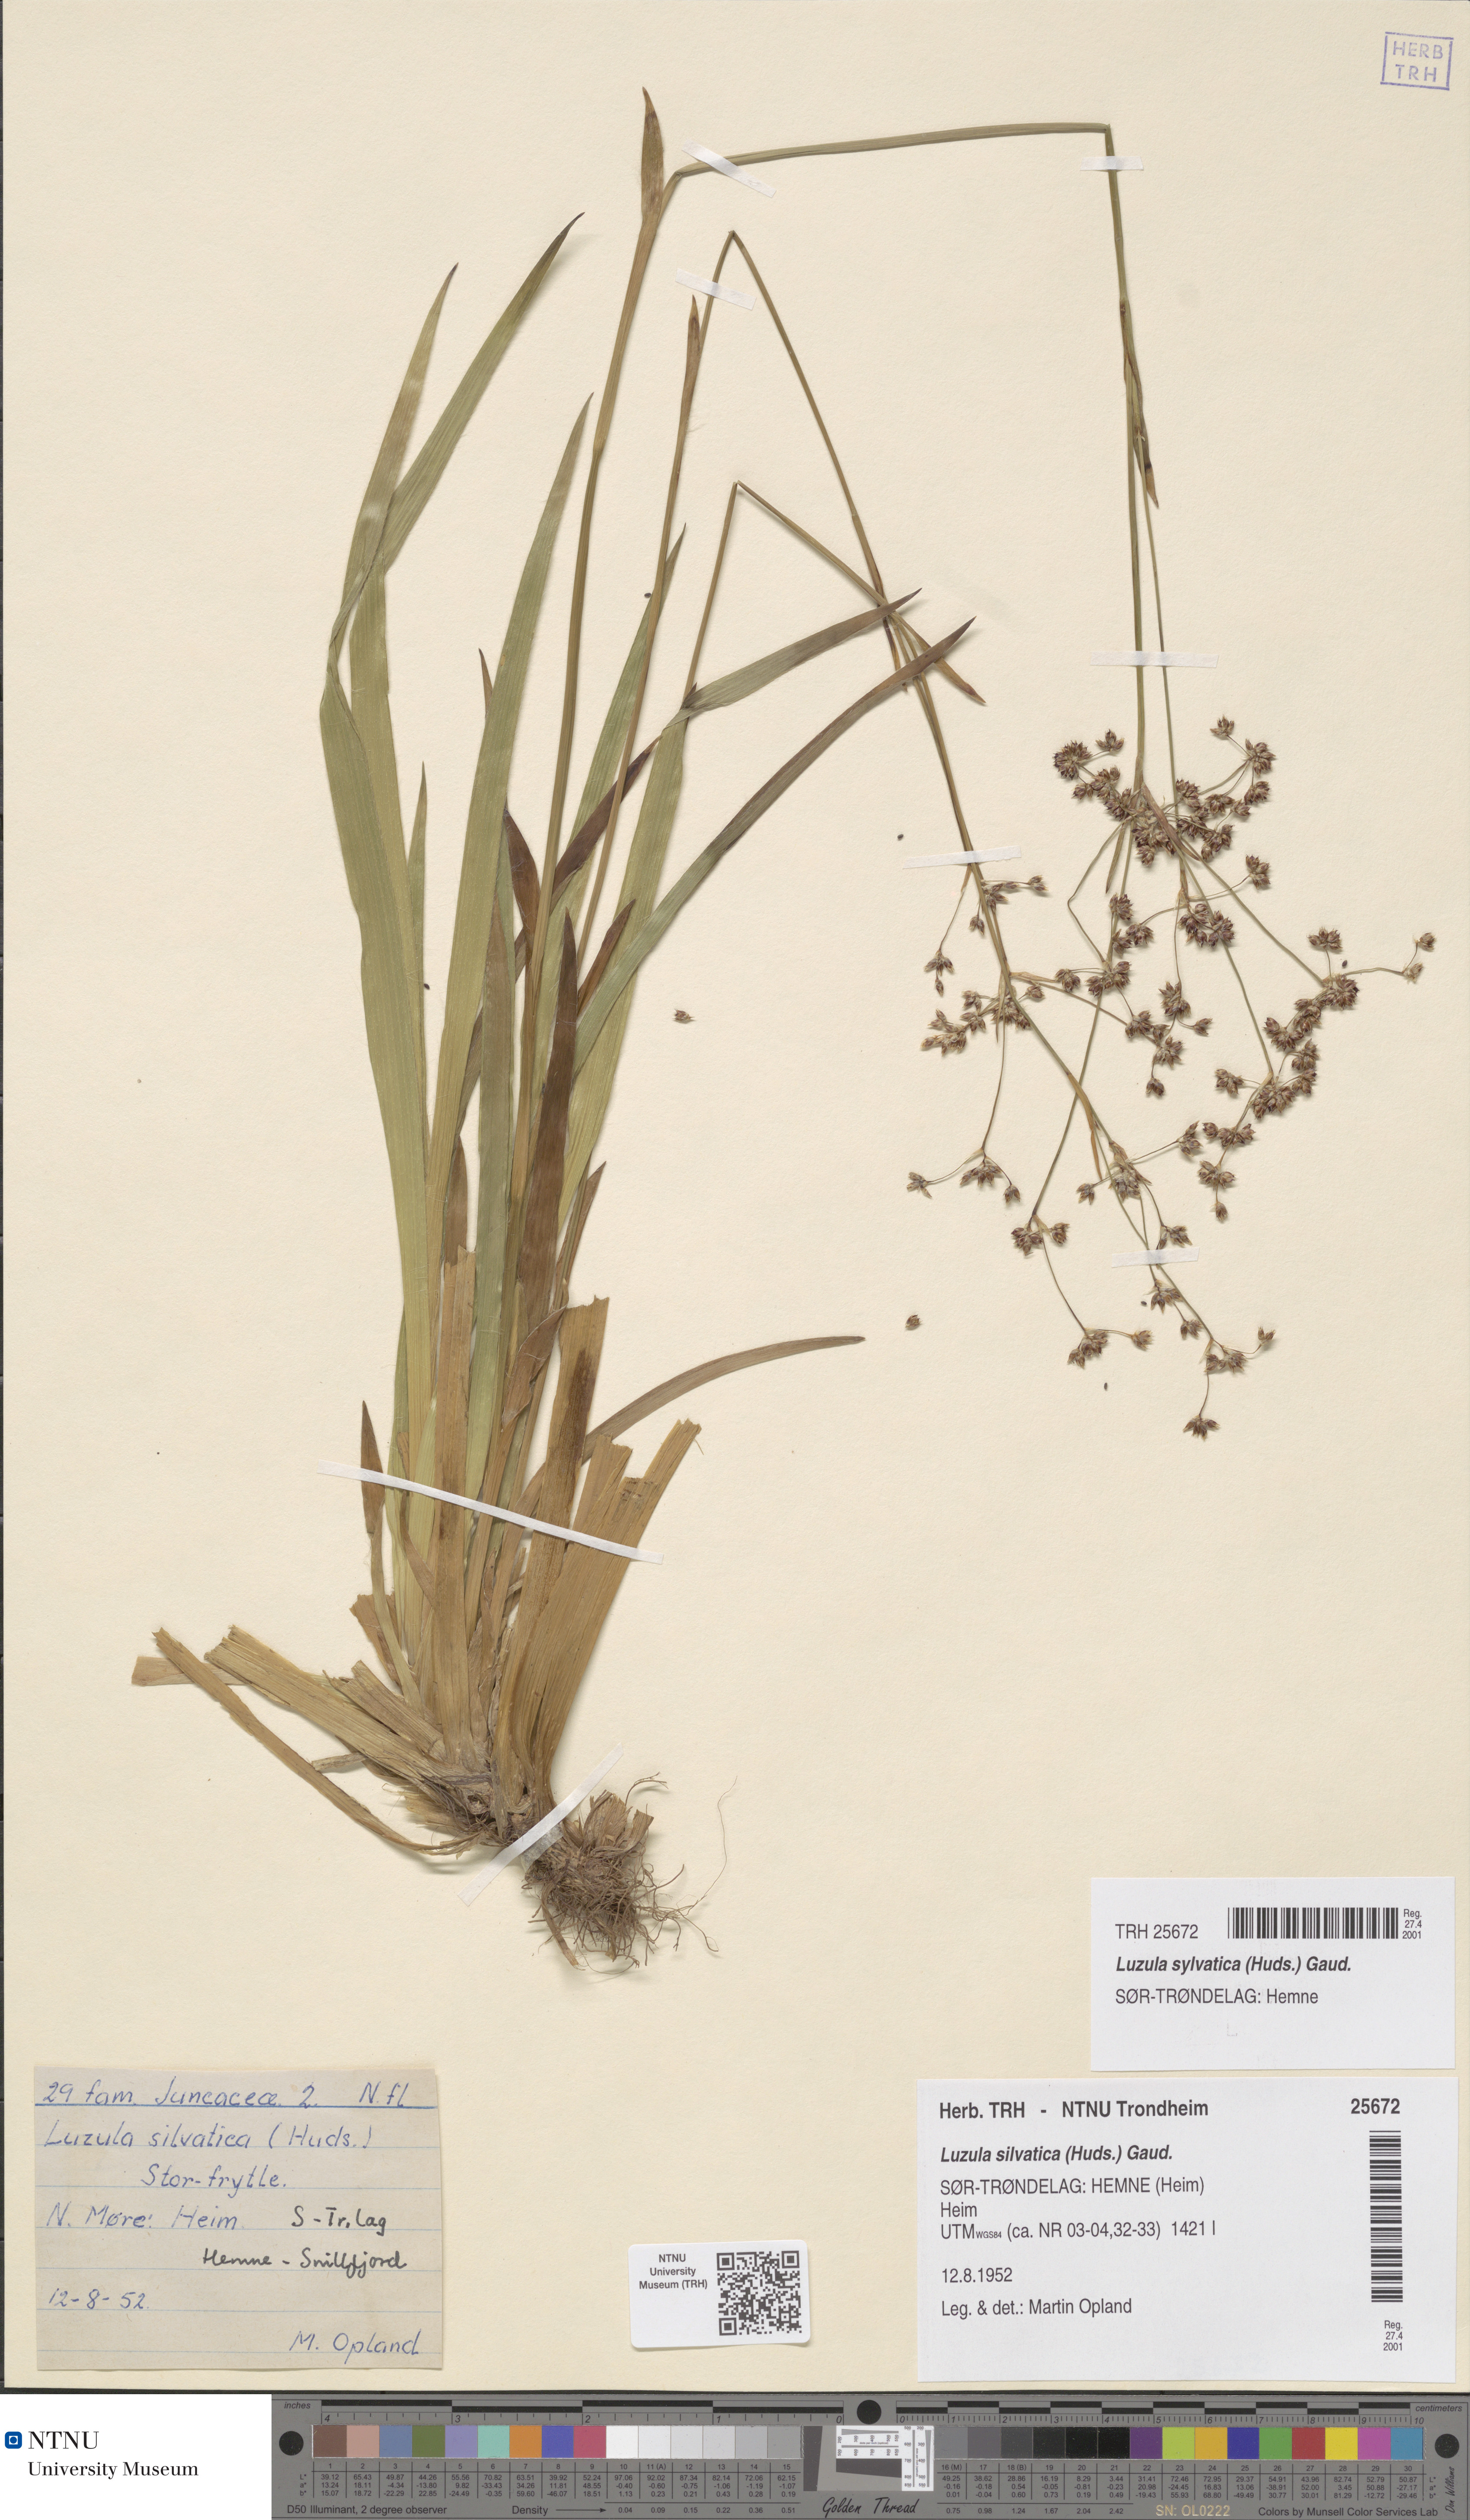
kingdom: Plantae
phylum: Tracheophyta
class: Liliopsida
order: Poales
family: Juncaceae
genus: Luzula
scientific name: Luzula sylvatica
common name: Great wood-rush
